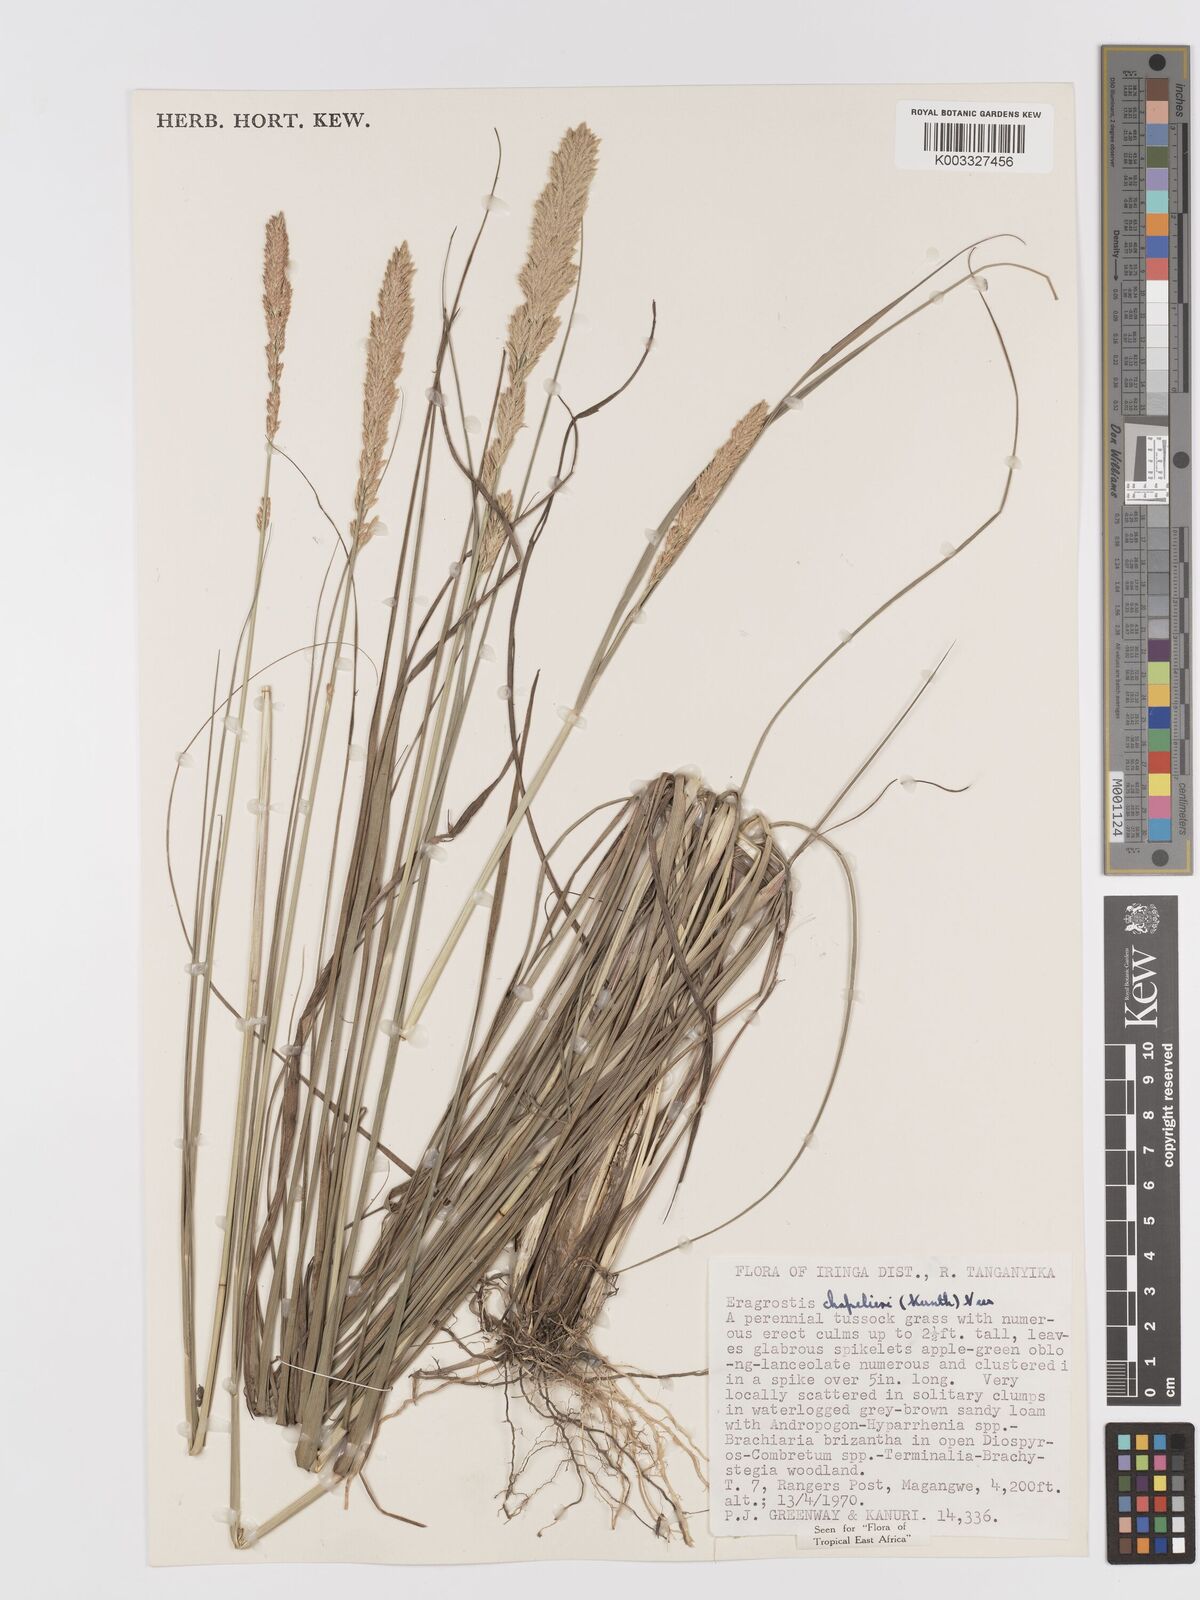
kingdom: Plantae
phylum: Tracheophyta
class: Liliopsida
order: Poales
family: Poaceae
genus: Eragrostis
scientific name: Eragrostis chapelieri
